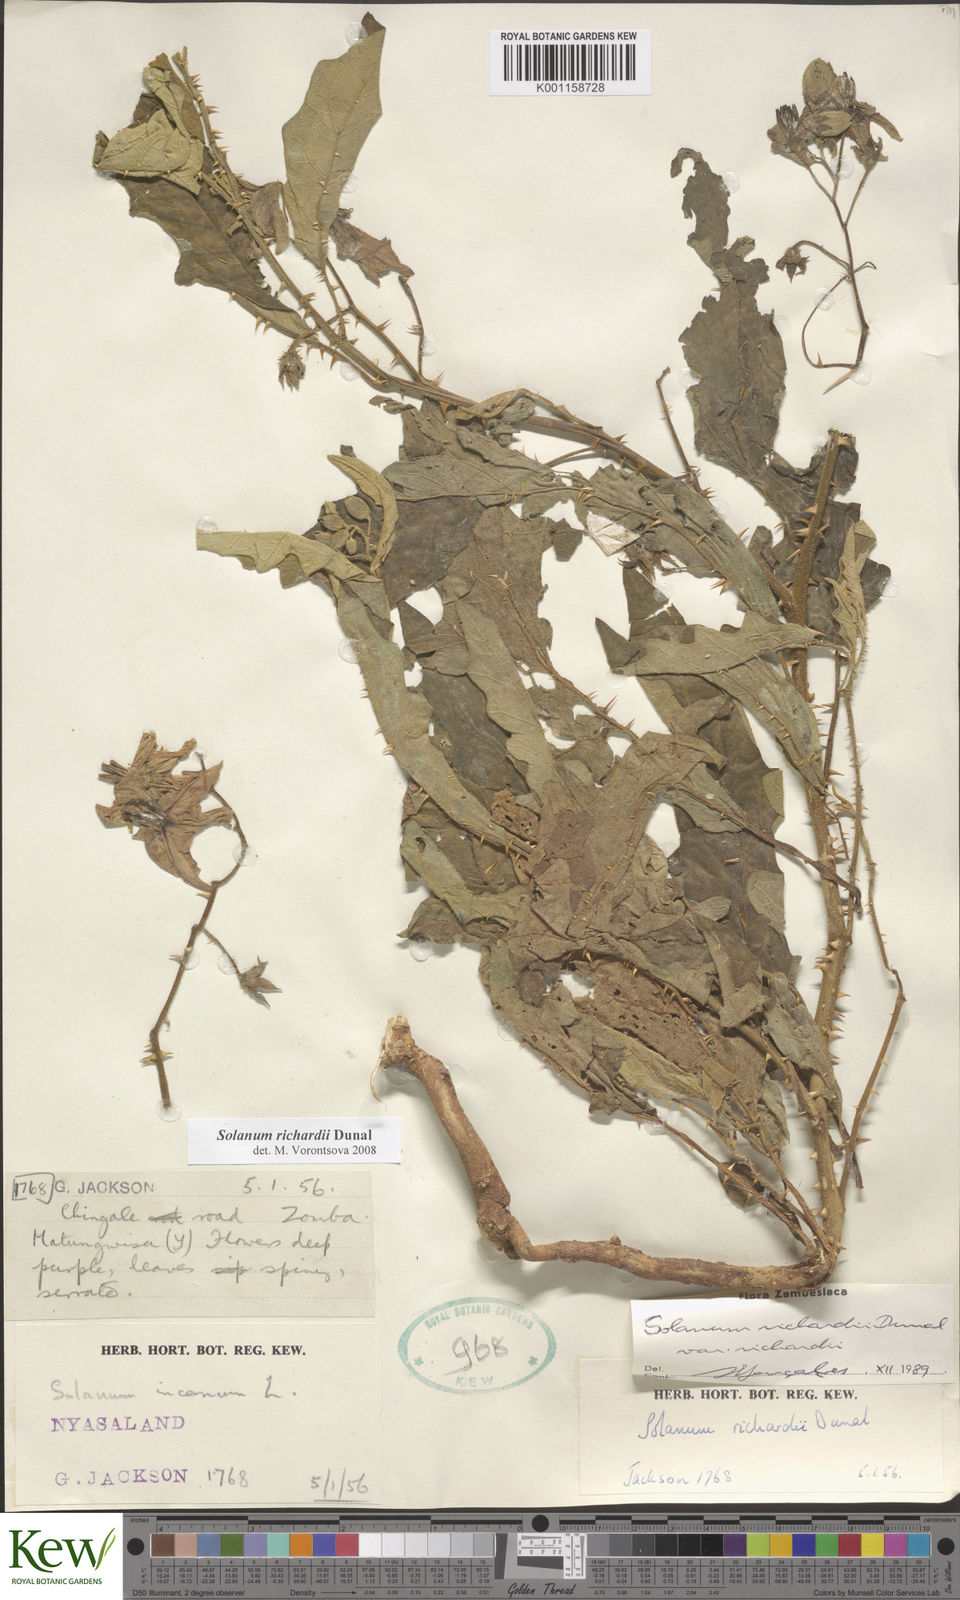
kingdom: Plantae
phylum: Tracheophyta
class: Magnoliopsida
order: Solanales
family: Solanaceae
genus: Solanum
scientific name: Solanum richardii
